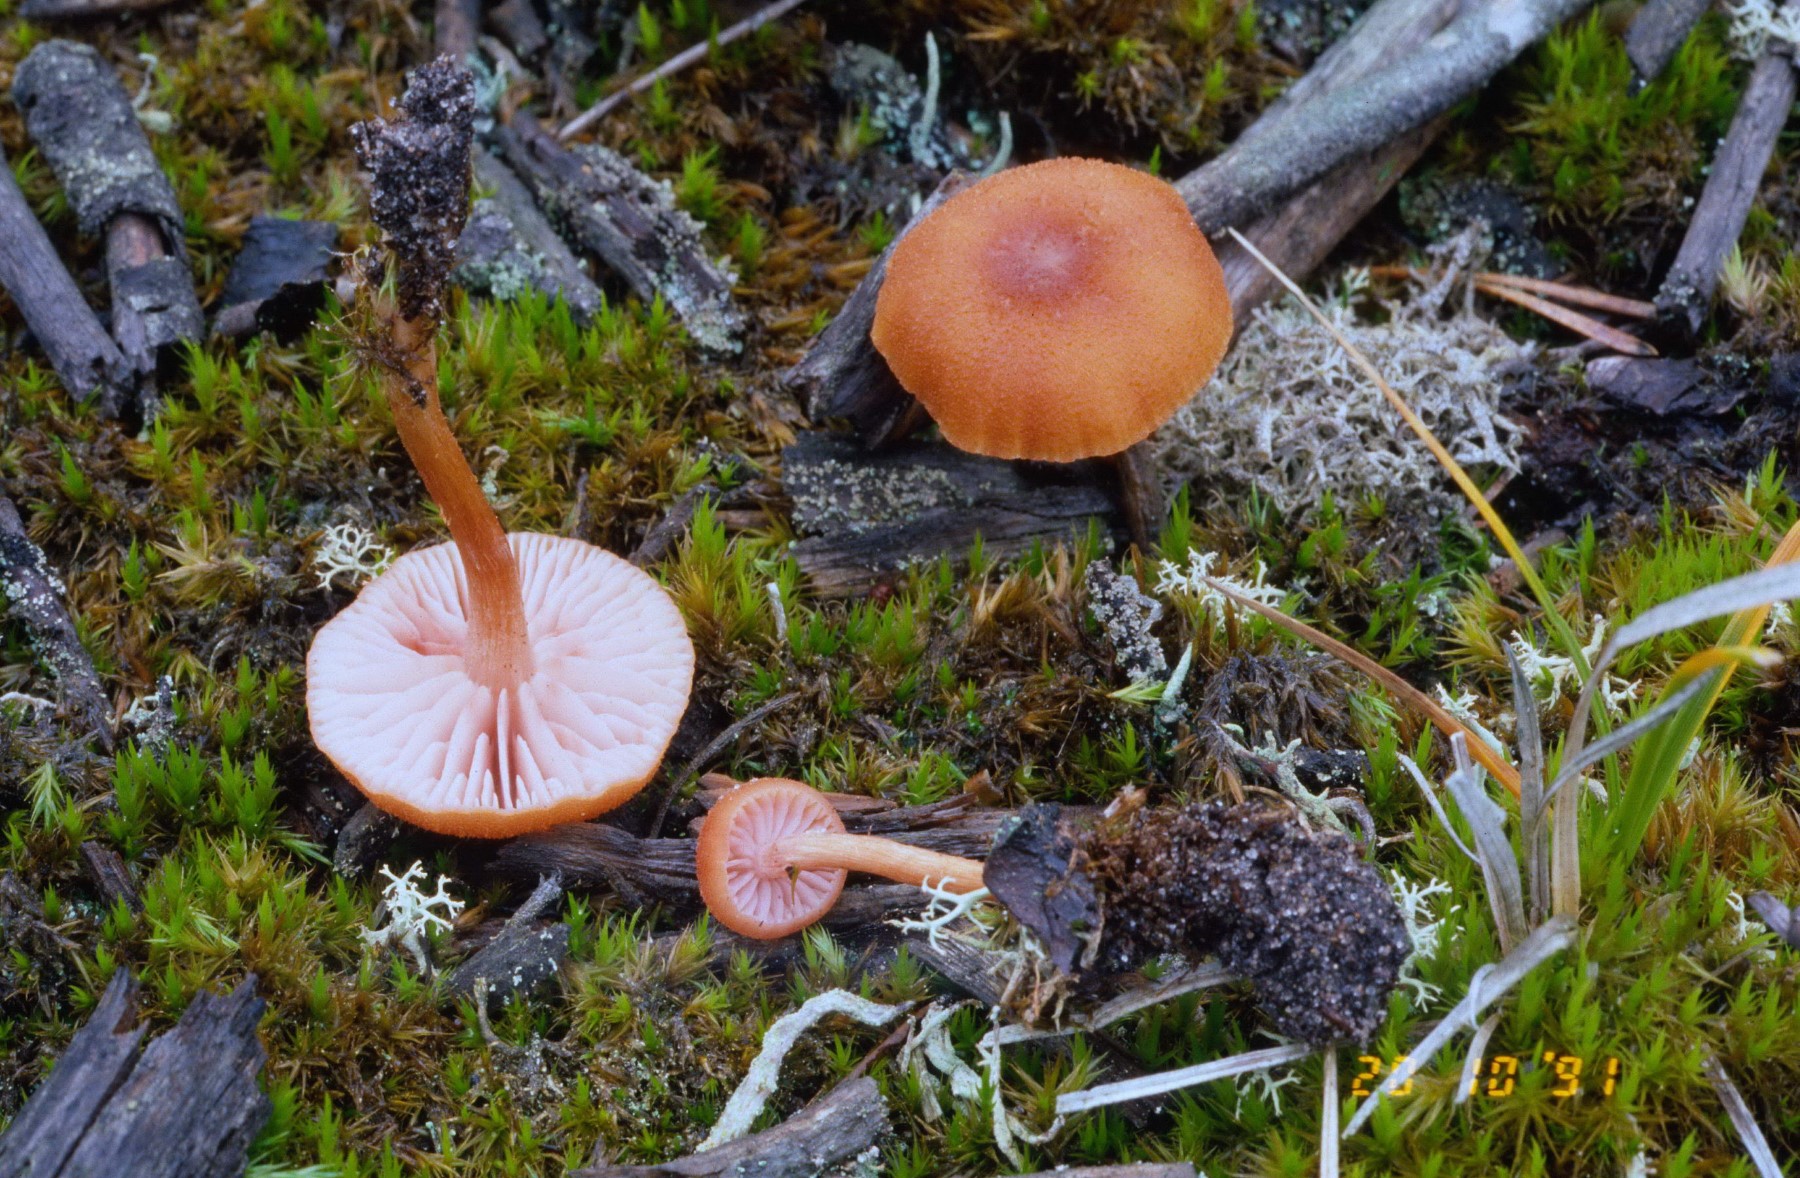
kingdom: Fungi
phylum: Basidiomycota
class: Agaricomycetes
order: Agaricales
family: Hydnangiaceae
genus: Laccaria
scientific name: Laccaria bicolor
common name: tvefarvet ametysthat
